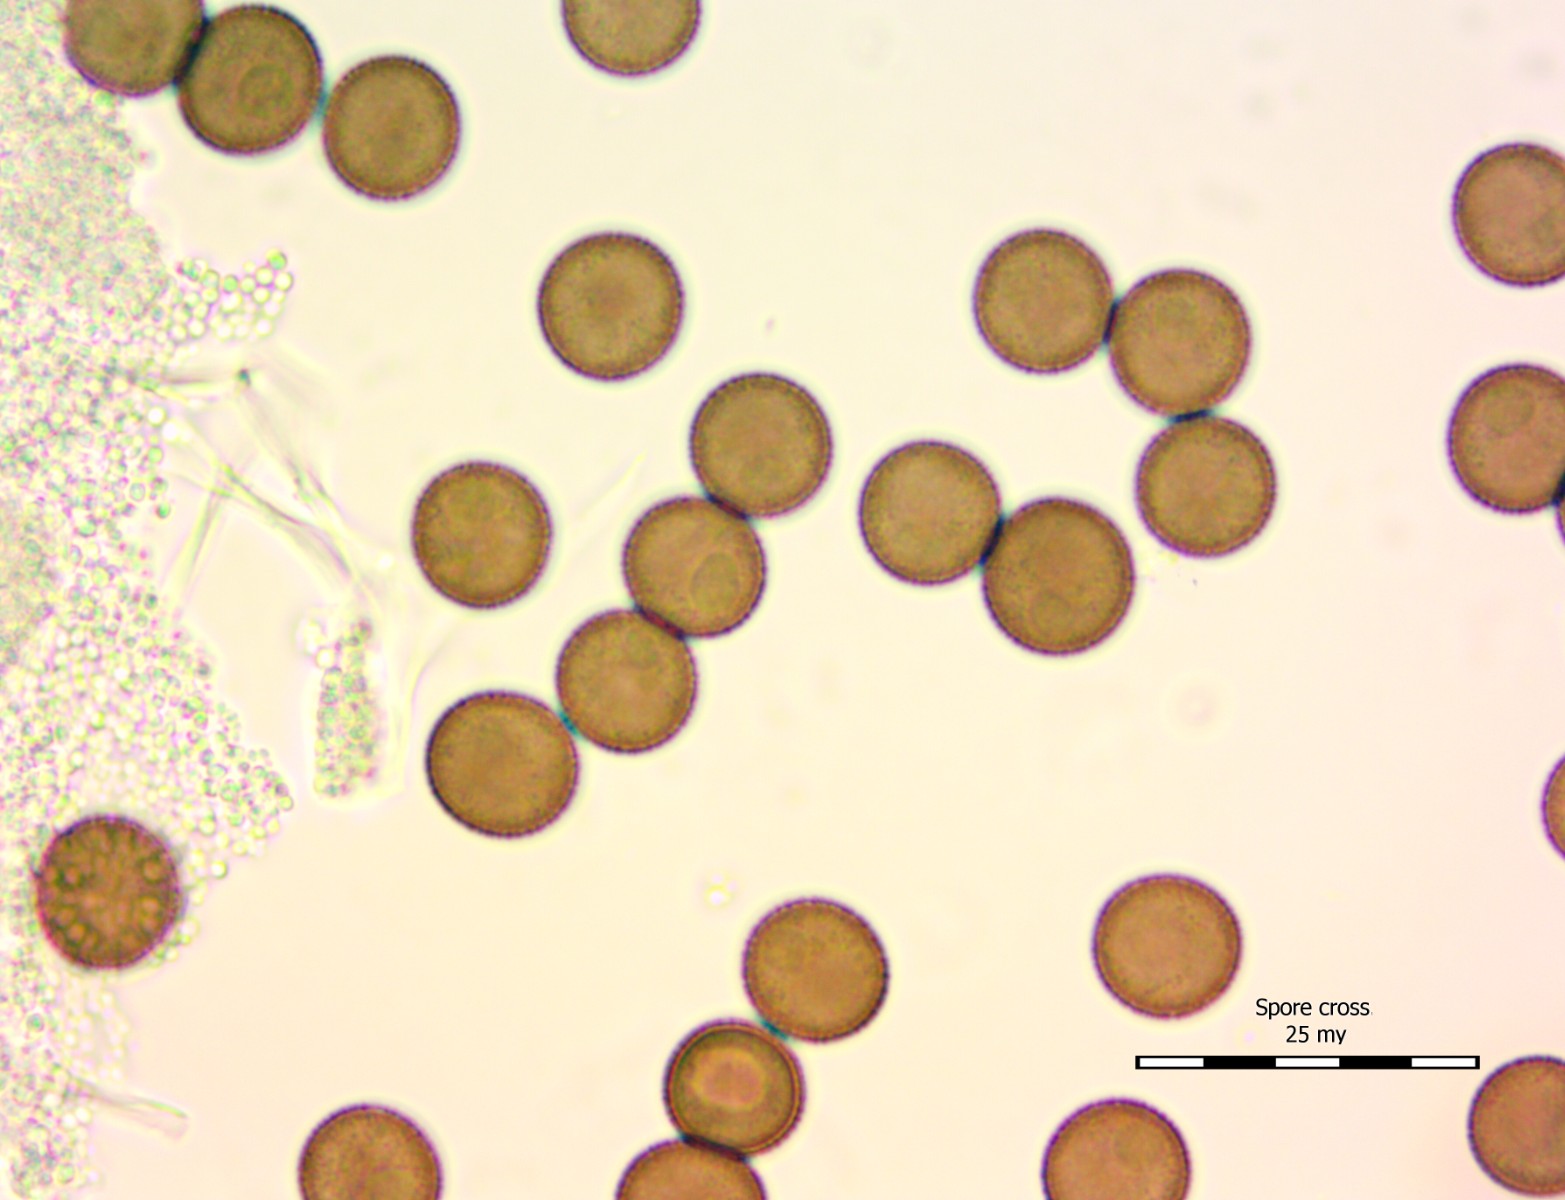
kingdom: Protozoa
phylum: Mycetozoa
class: Myxomycetes
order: Physarales
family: Physaraceae
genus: Physarum
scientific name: Physarum cinereum
